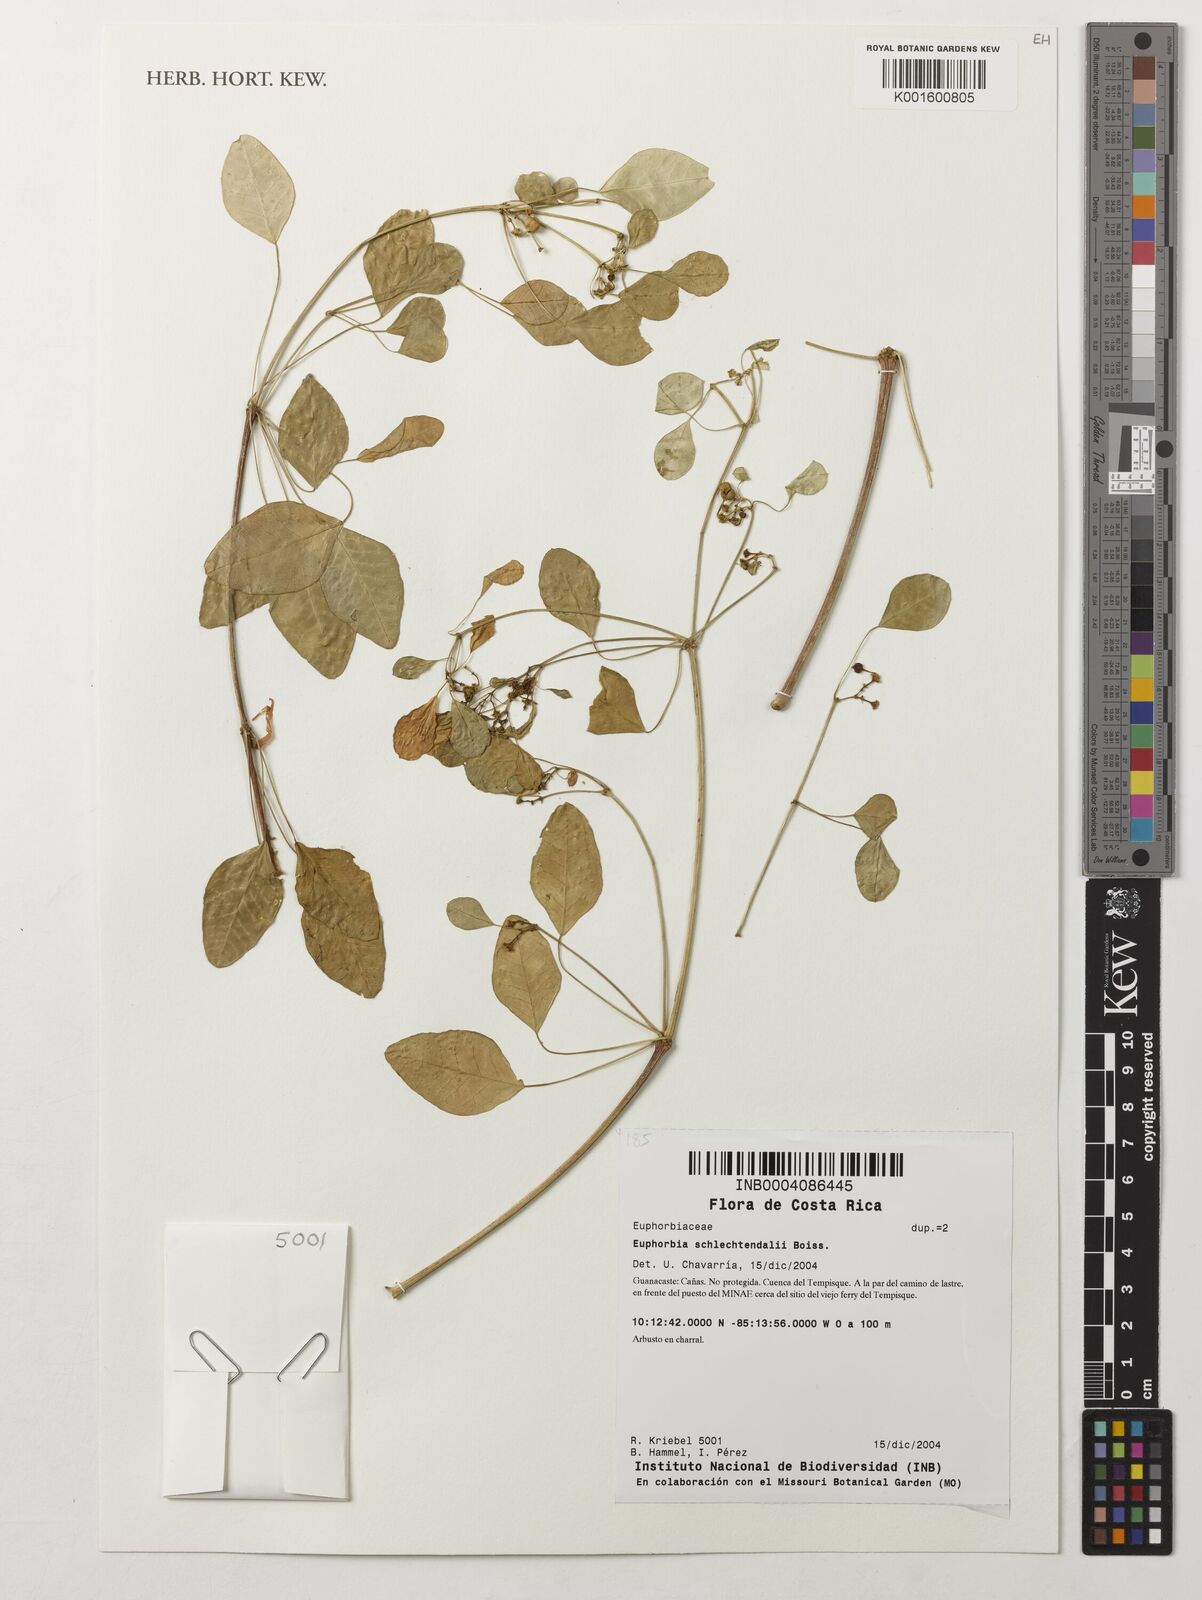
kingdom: Plantae
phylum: Tracheophyta
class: Magnoliopsida
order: Malpighiales
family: Euphorbiaceae
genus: Euphorbia
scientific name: Euphorbia schlechtendalii
